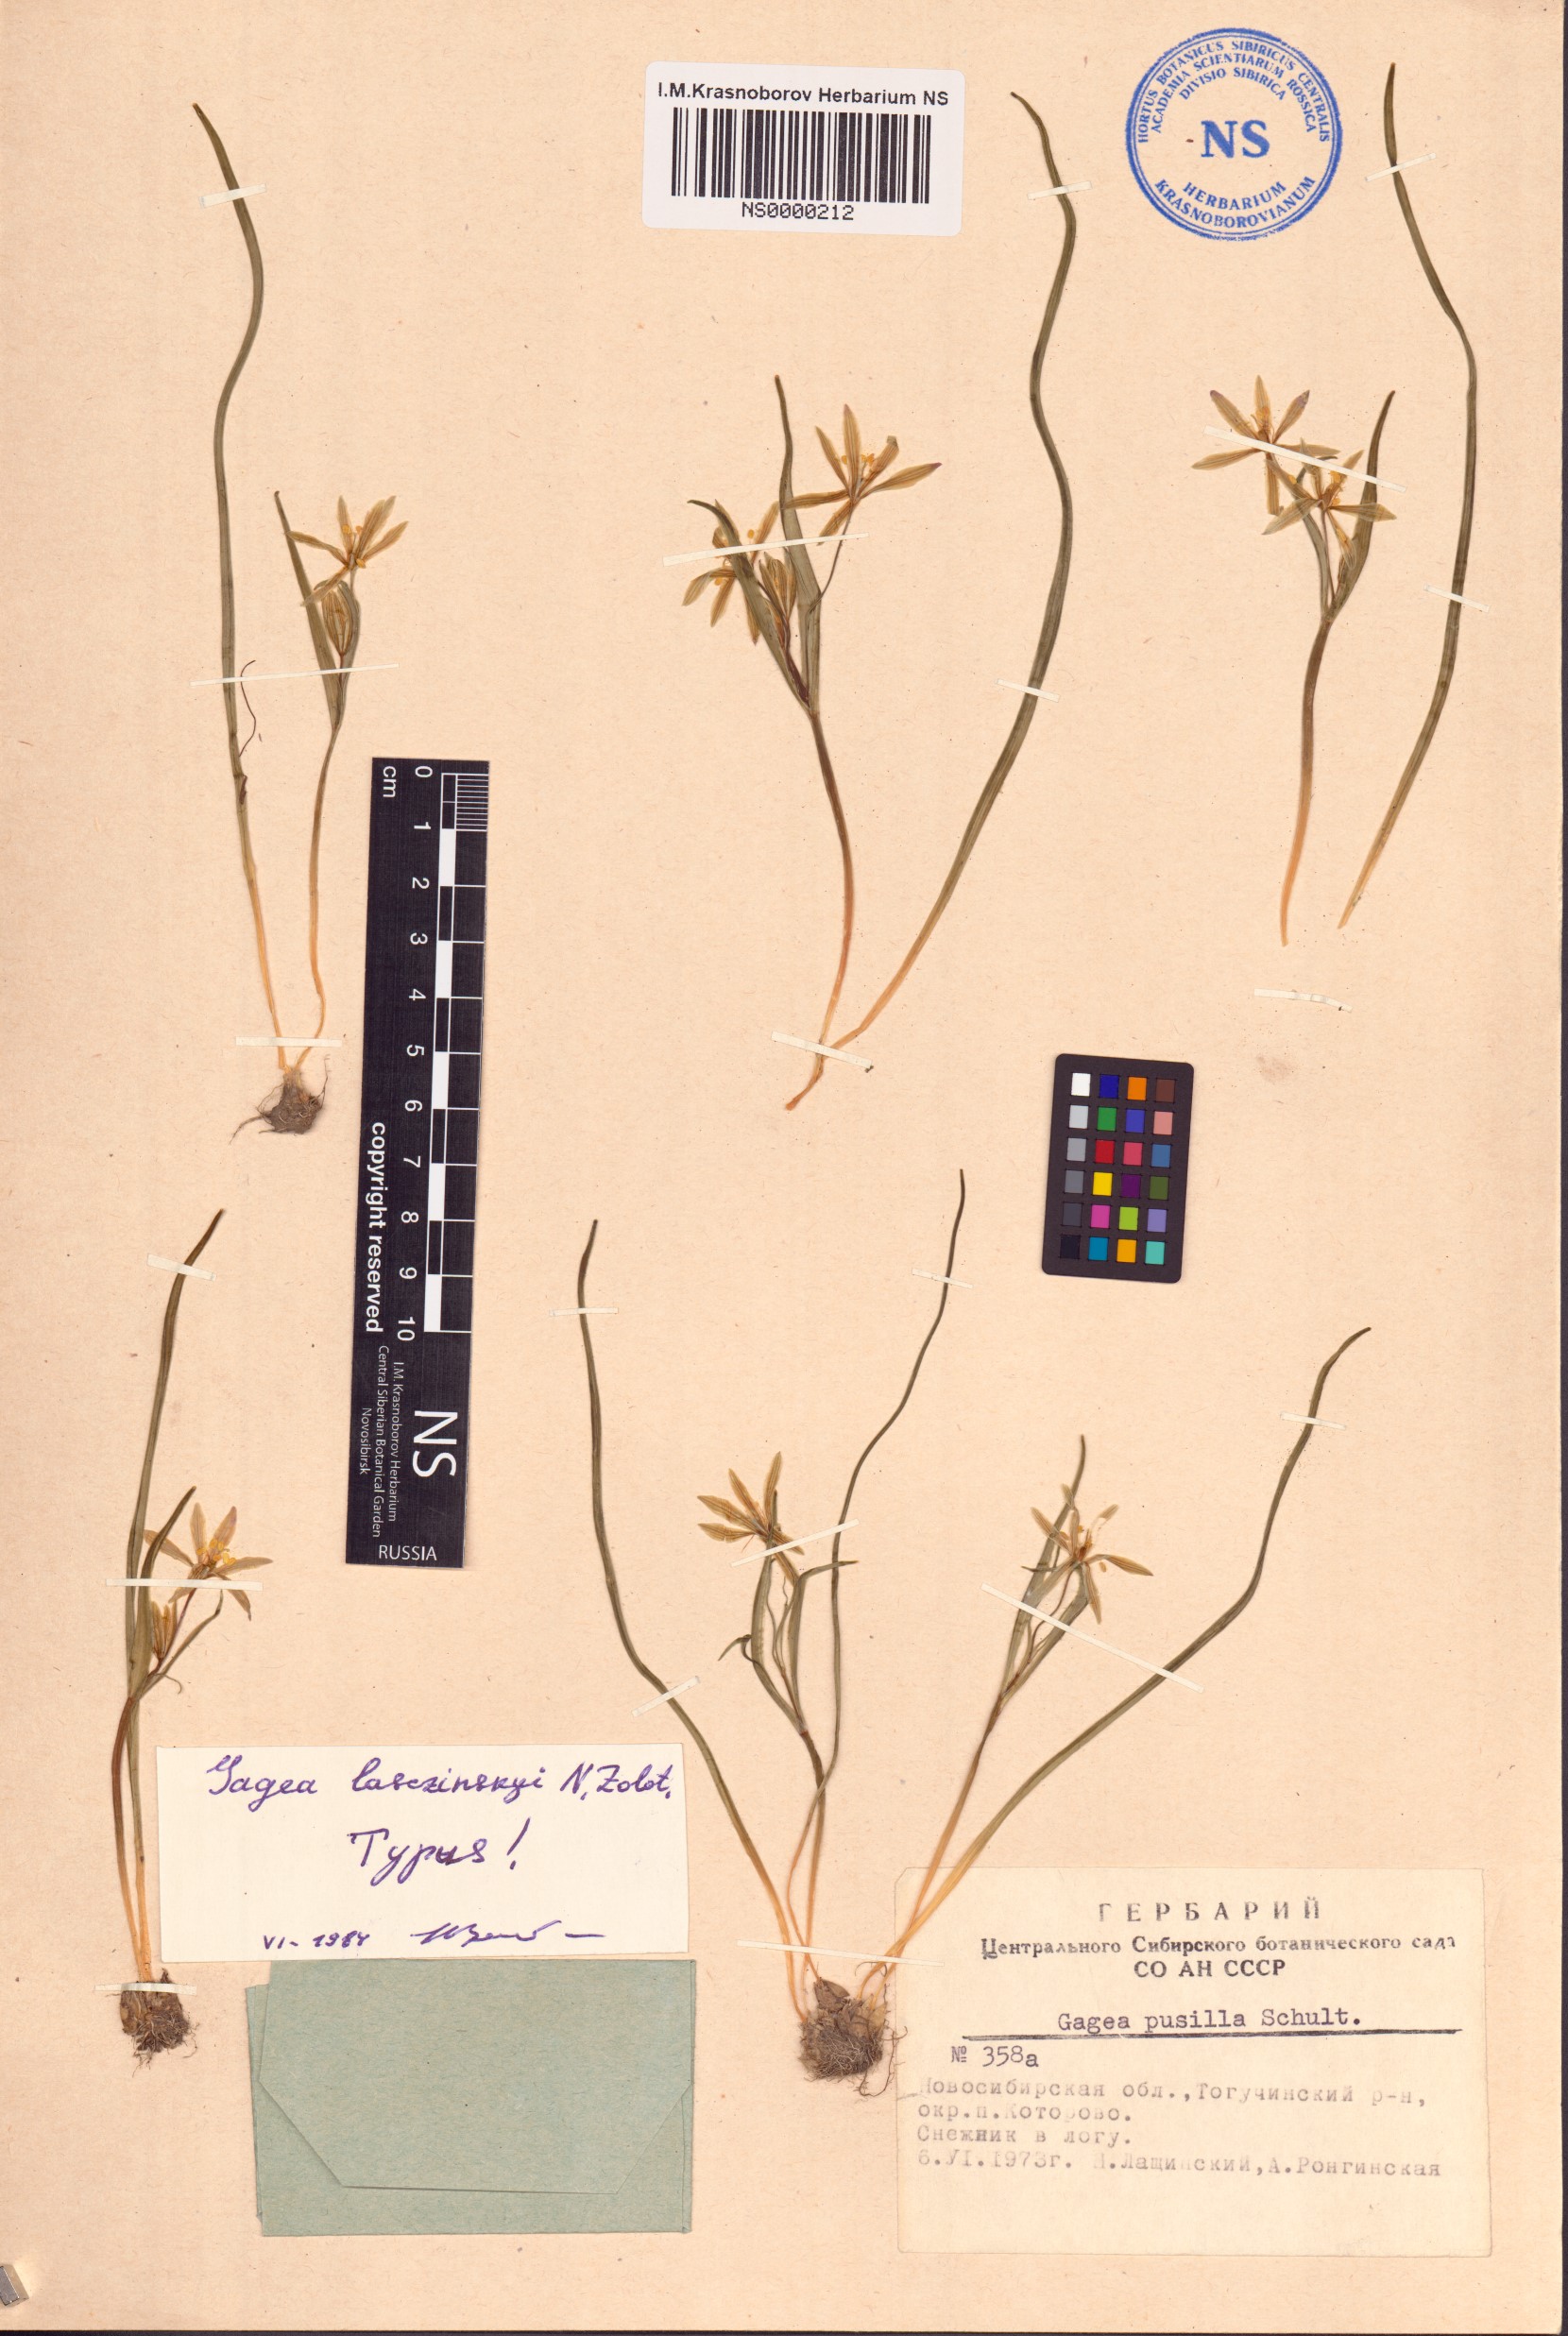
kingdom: Plantae
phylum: Tracheophyta
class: Liliopsida
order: Liliales
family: Liliaceae
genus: Gagea
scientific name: Gagea fragifera
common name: Lily
